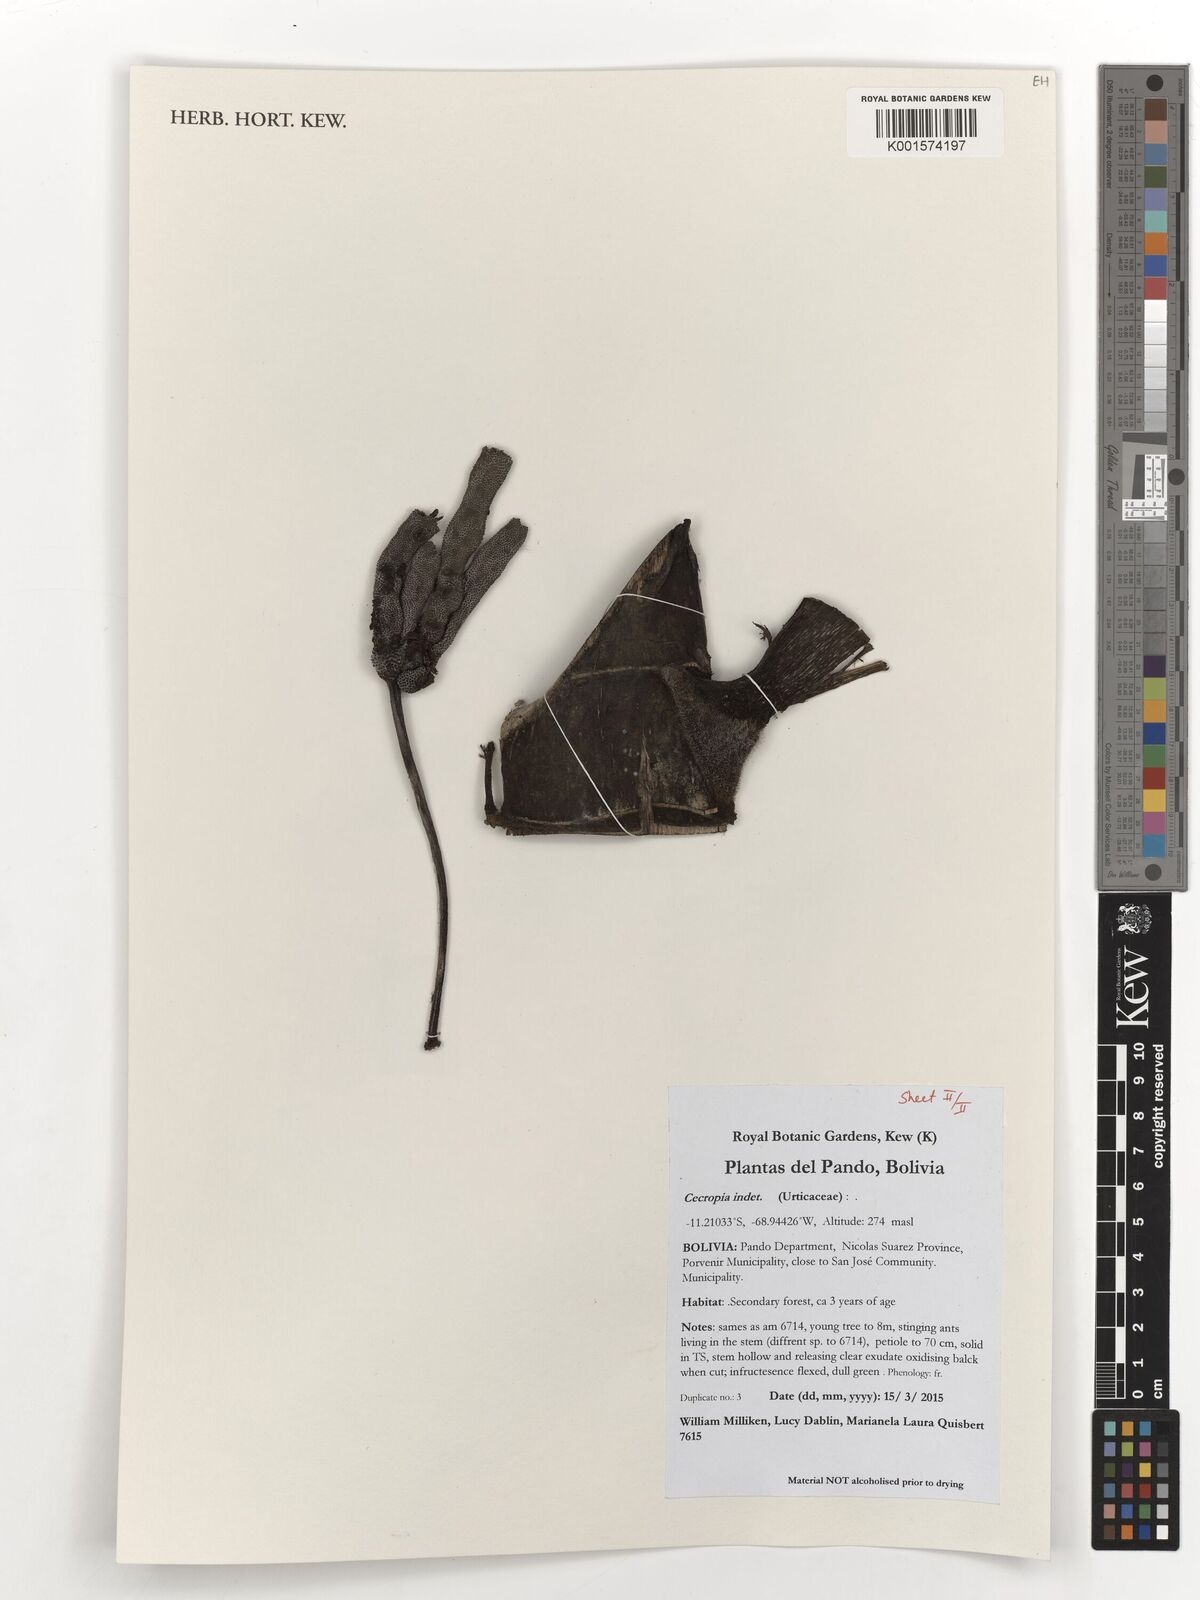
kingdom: Plantae
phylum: Tracheophyta
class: Magnoliopsida
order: Rosales
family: Urticaceae
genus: Cecropia
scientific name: Cecropia
